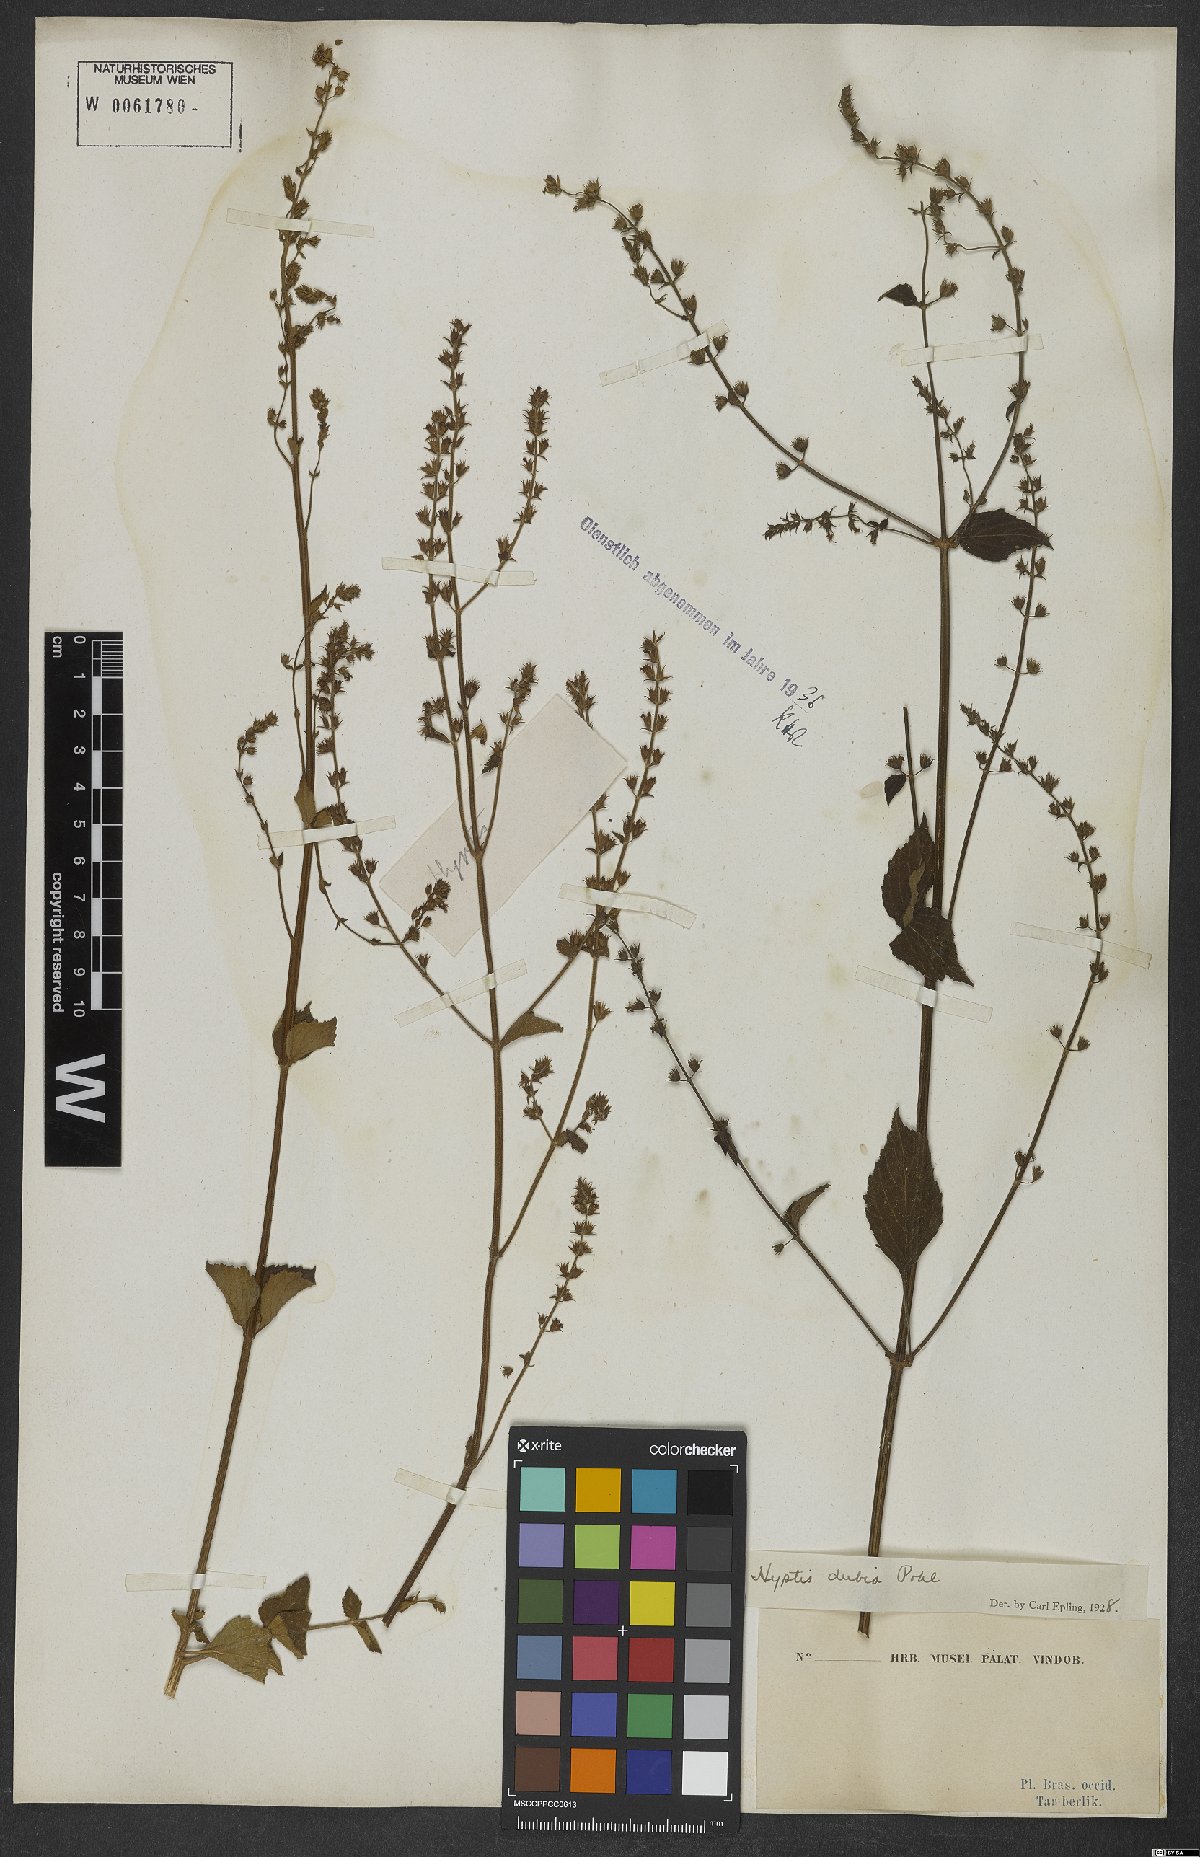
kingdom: Plantae
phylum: Tracheophyta
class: Magnoliopsida
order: Lamiales
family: Lamiaceae
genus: Cantinoa
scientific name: Cantinoa dubia
